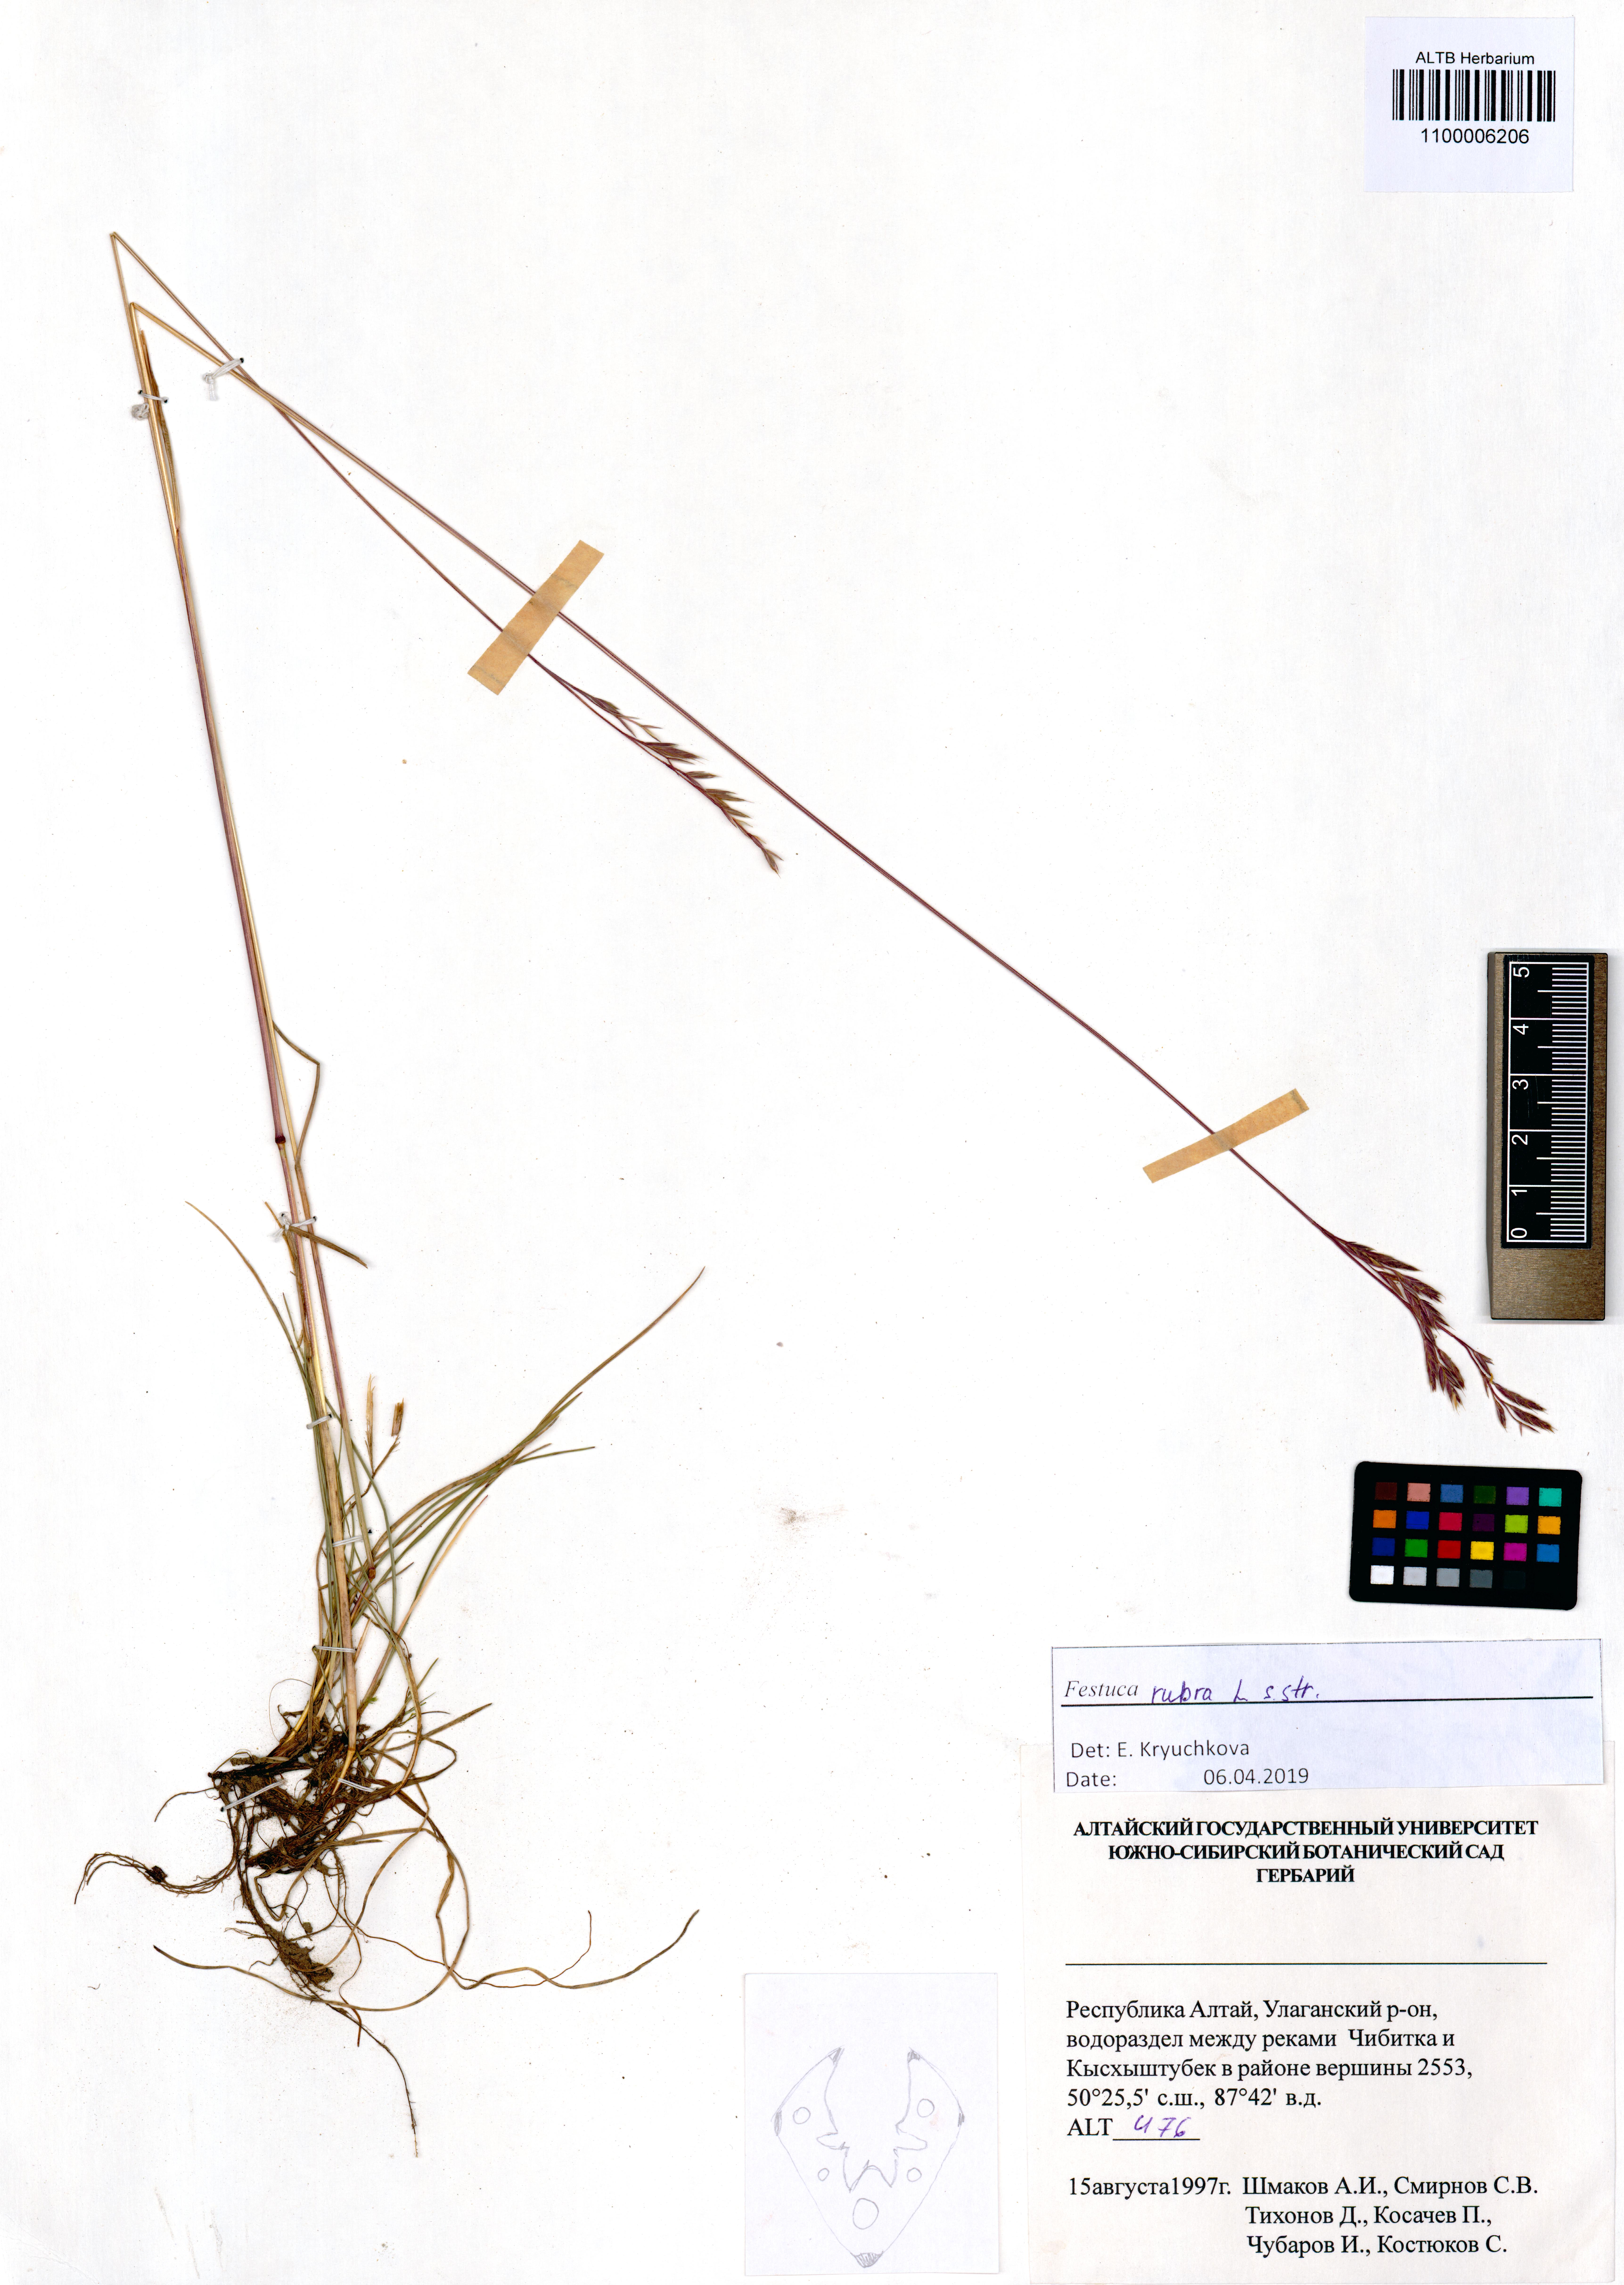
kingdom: Plantae
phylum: Tracheophyta
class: Liliopsida
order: Poales
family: Poaceae
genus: Festuca
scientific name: Festuca rubra
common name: Red fescue
